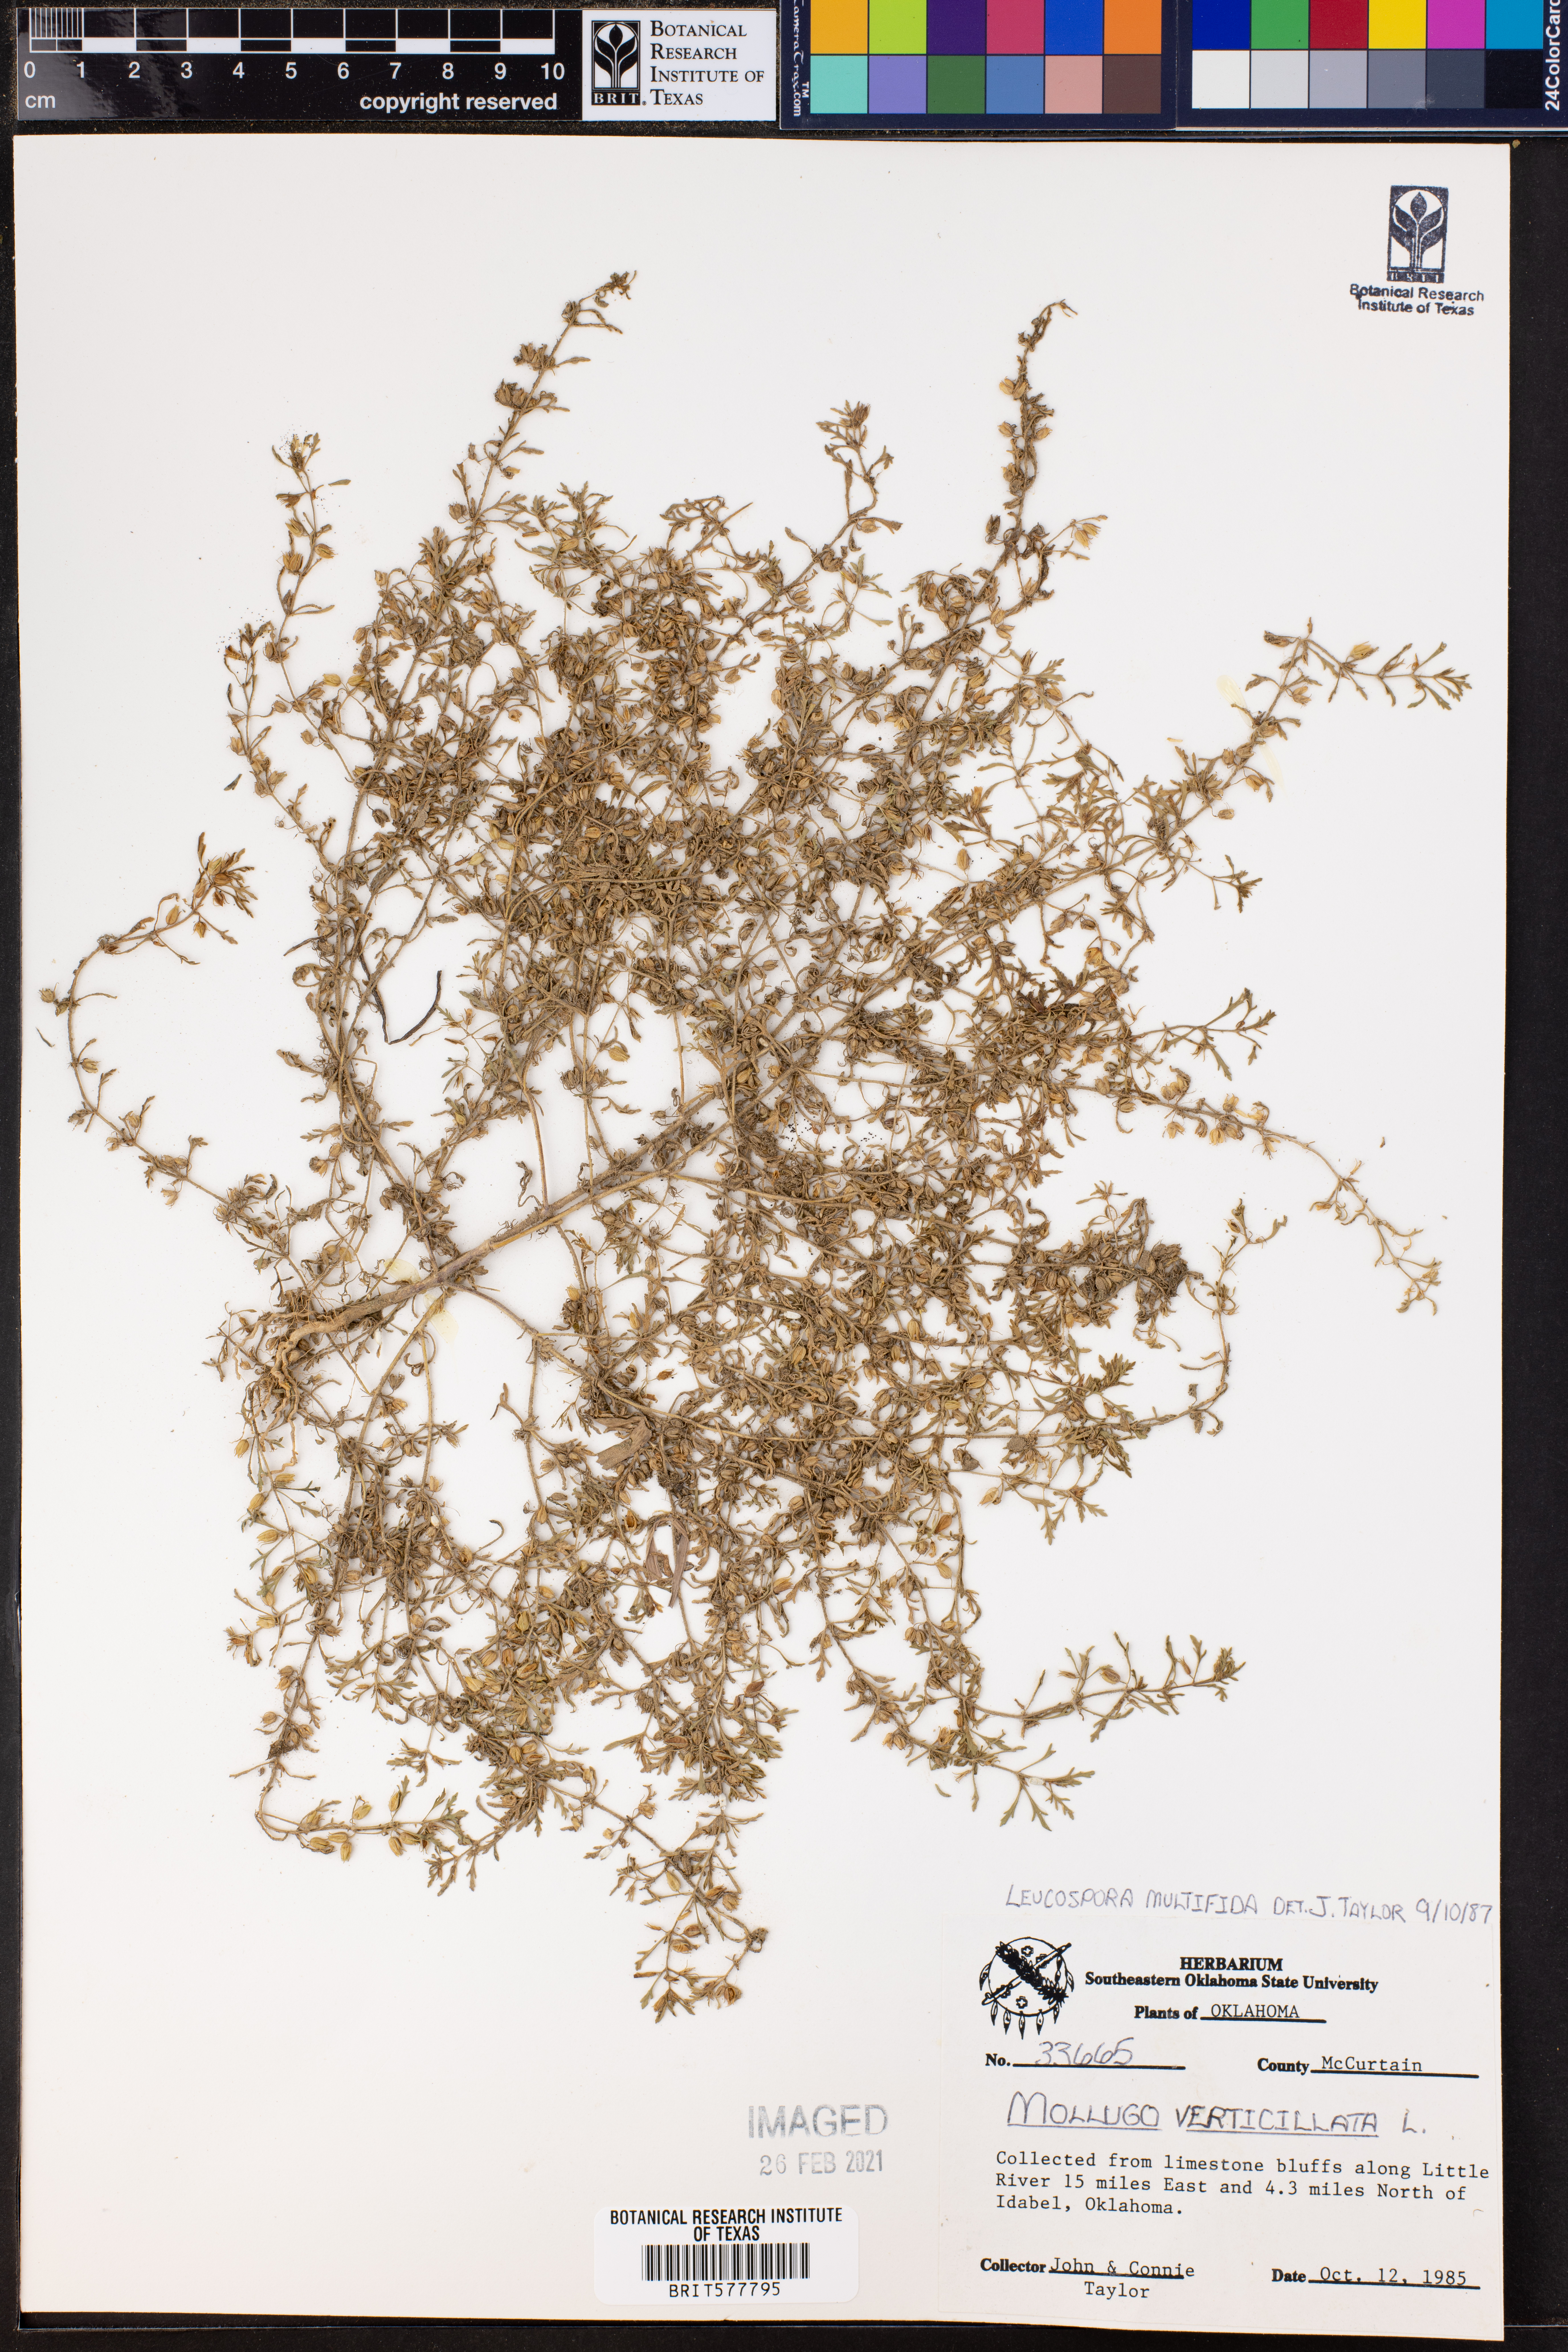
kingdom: Plantae
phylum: Tracheophyta
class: Magnoliopsida
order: Lamiales
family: Plantaginaceae
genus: Leucospora
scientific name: Leucospora multifida
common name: Narrow-leaf paleseed
